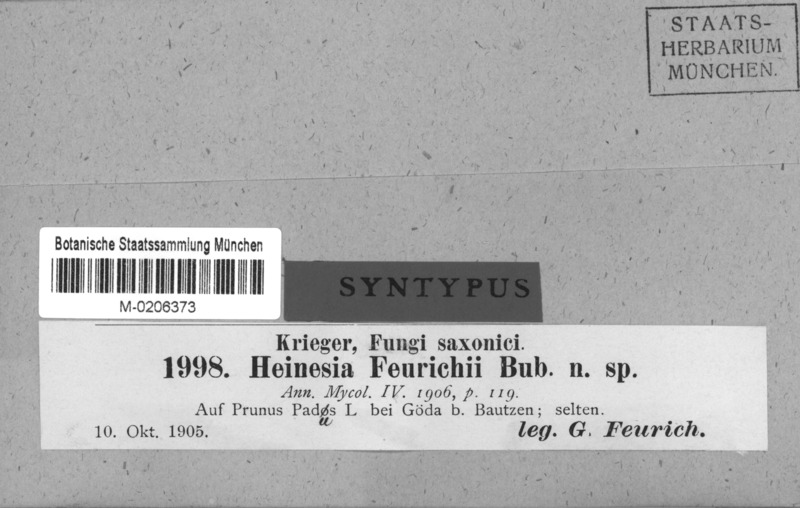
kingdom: Fungi
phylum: Ascomycota
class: Leotiomycetes
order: Chaetomellales
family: Chaetomellaceae
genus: Hainesia
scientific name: Hainesia feurichii
